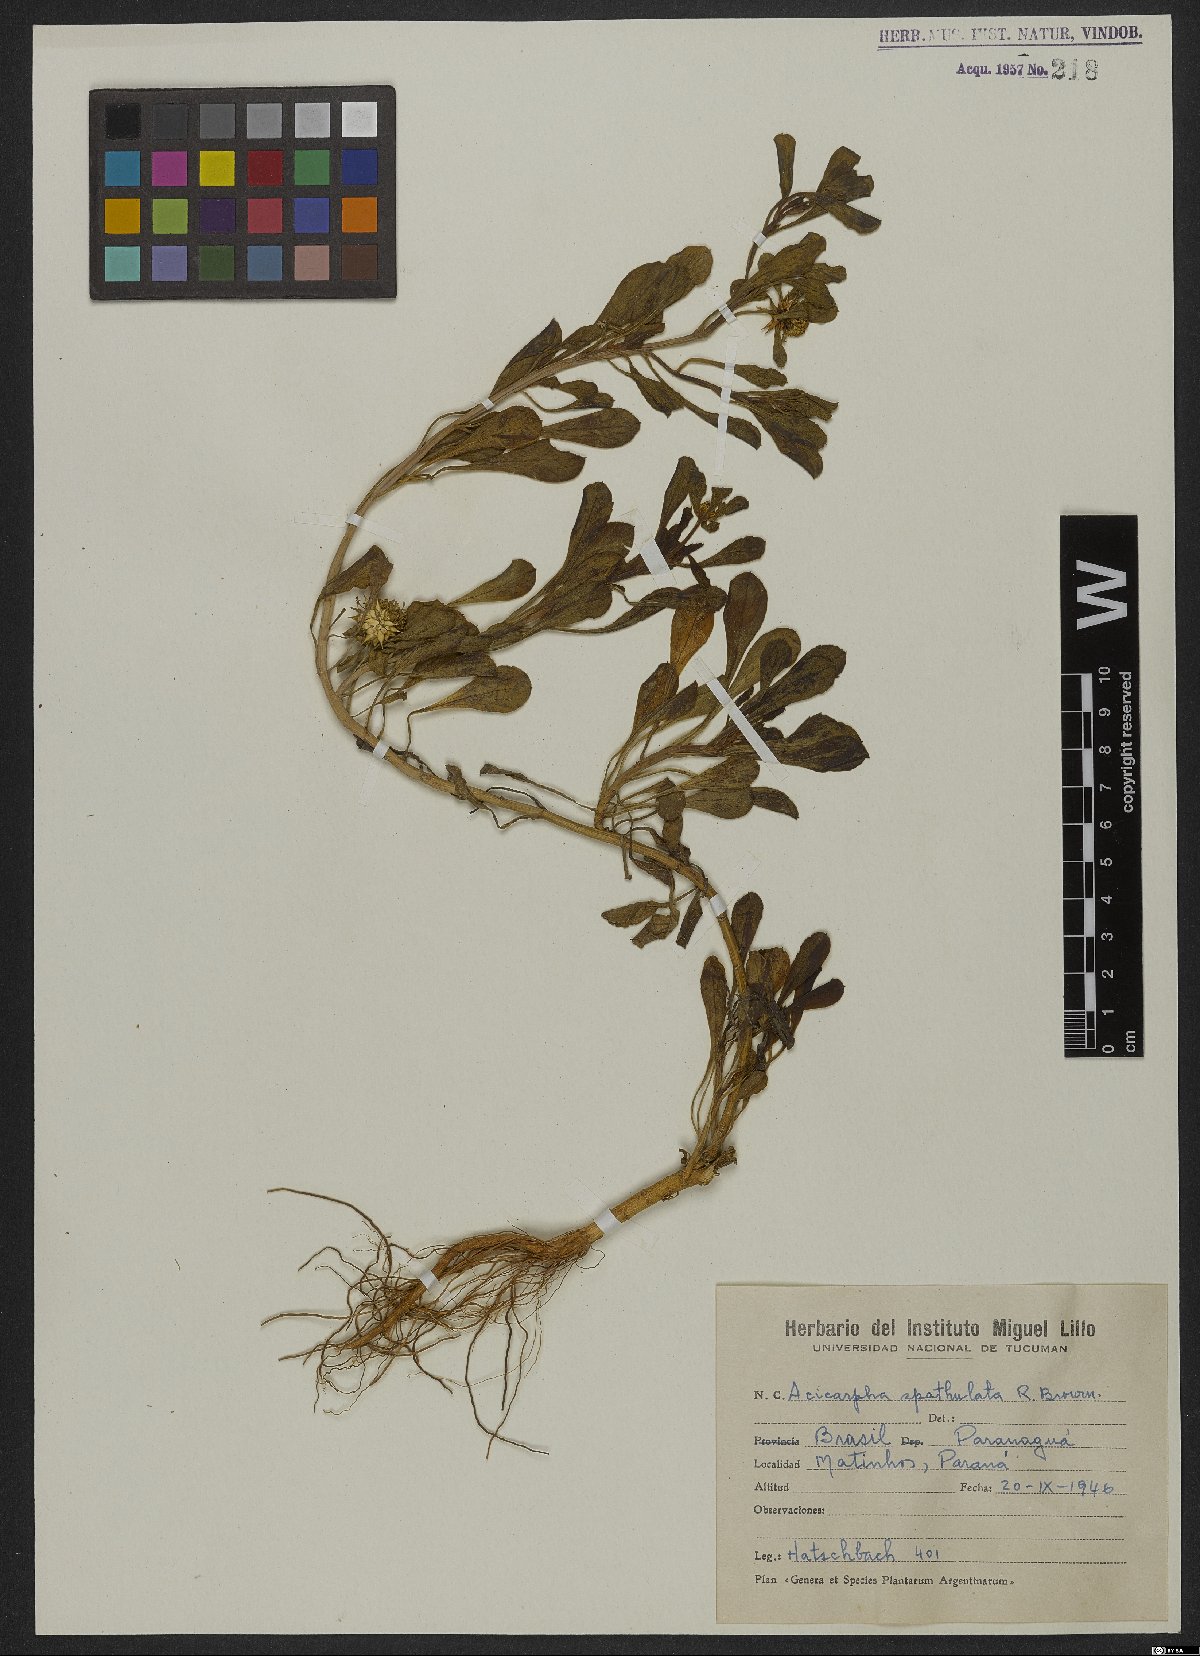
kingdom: Plantae
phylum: Tracheophyta
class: Magnoliopsida
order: Asterales
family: Calyceraceae
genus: Acicarpha
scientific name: Acicarpha spathulata
